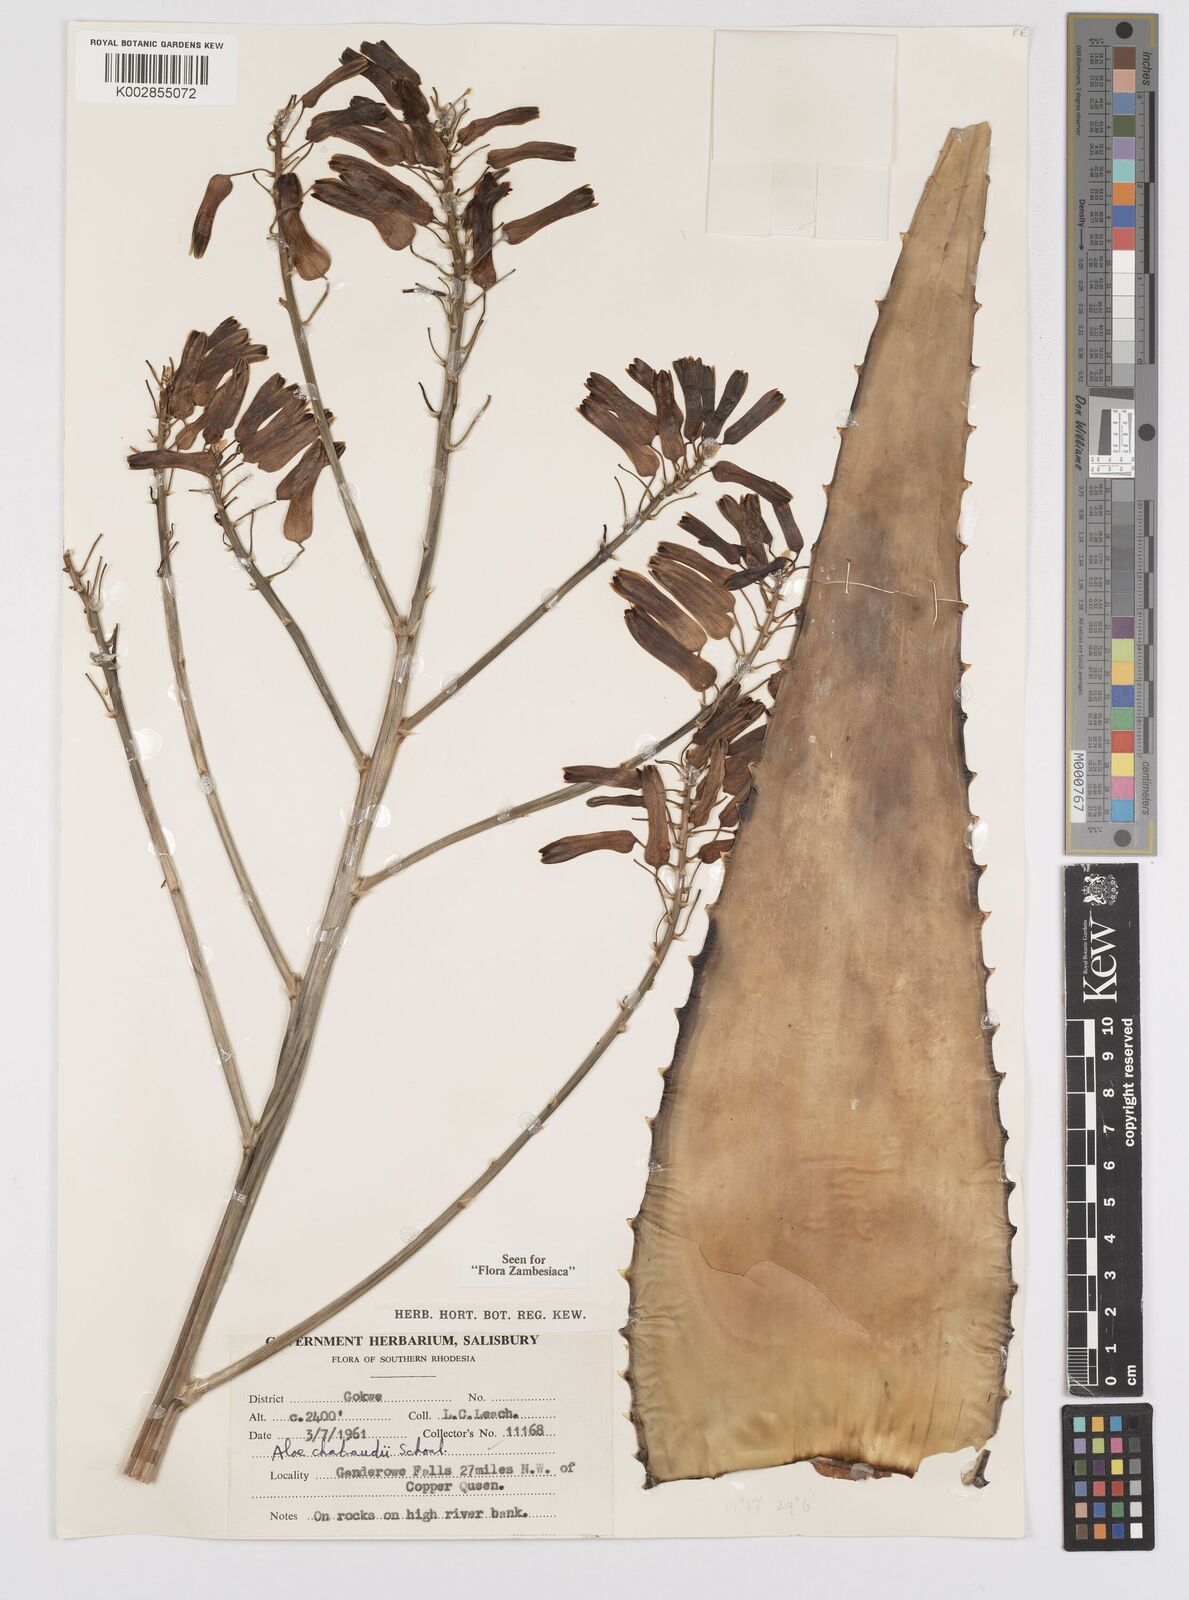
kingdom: Plantae
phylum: Tracheophyta
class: Liliopsida
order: Asparagales
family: Asphodelaceae
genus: Aloe
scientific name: Aloe chabaudii
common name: Chabaud's aloe
